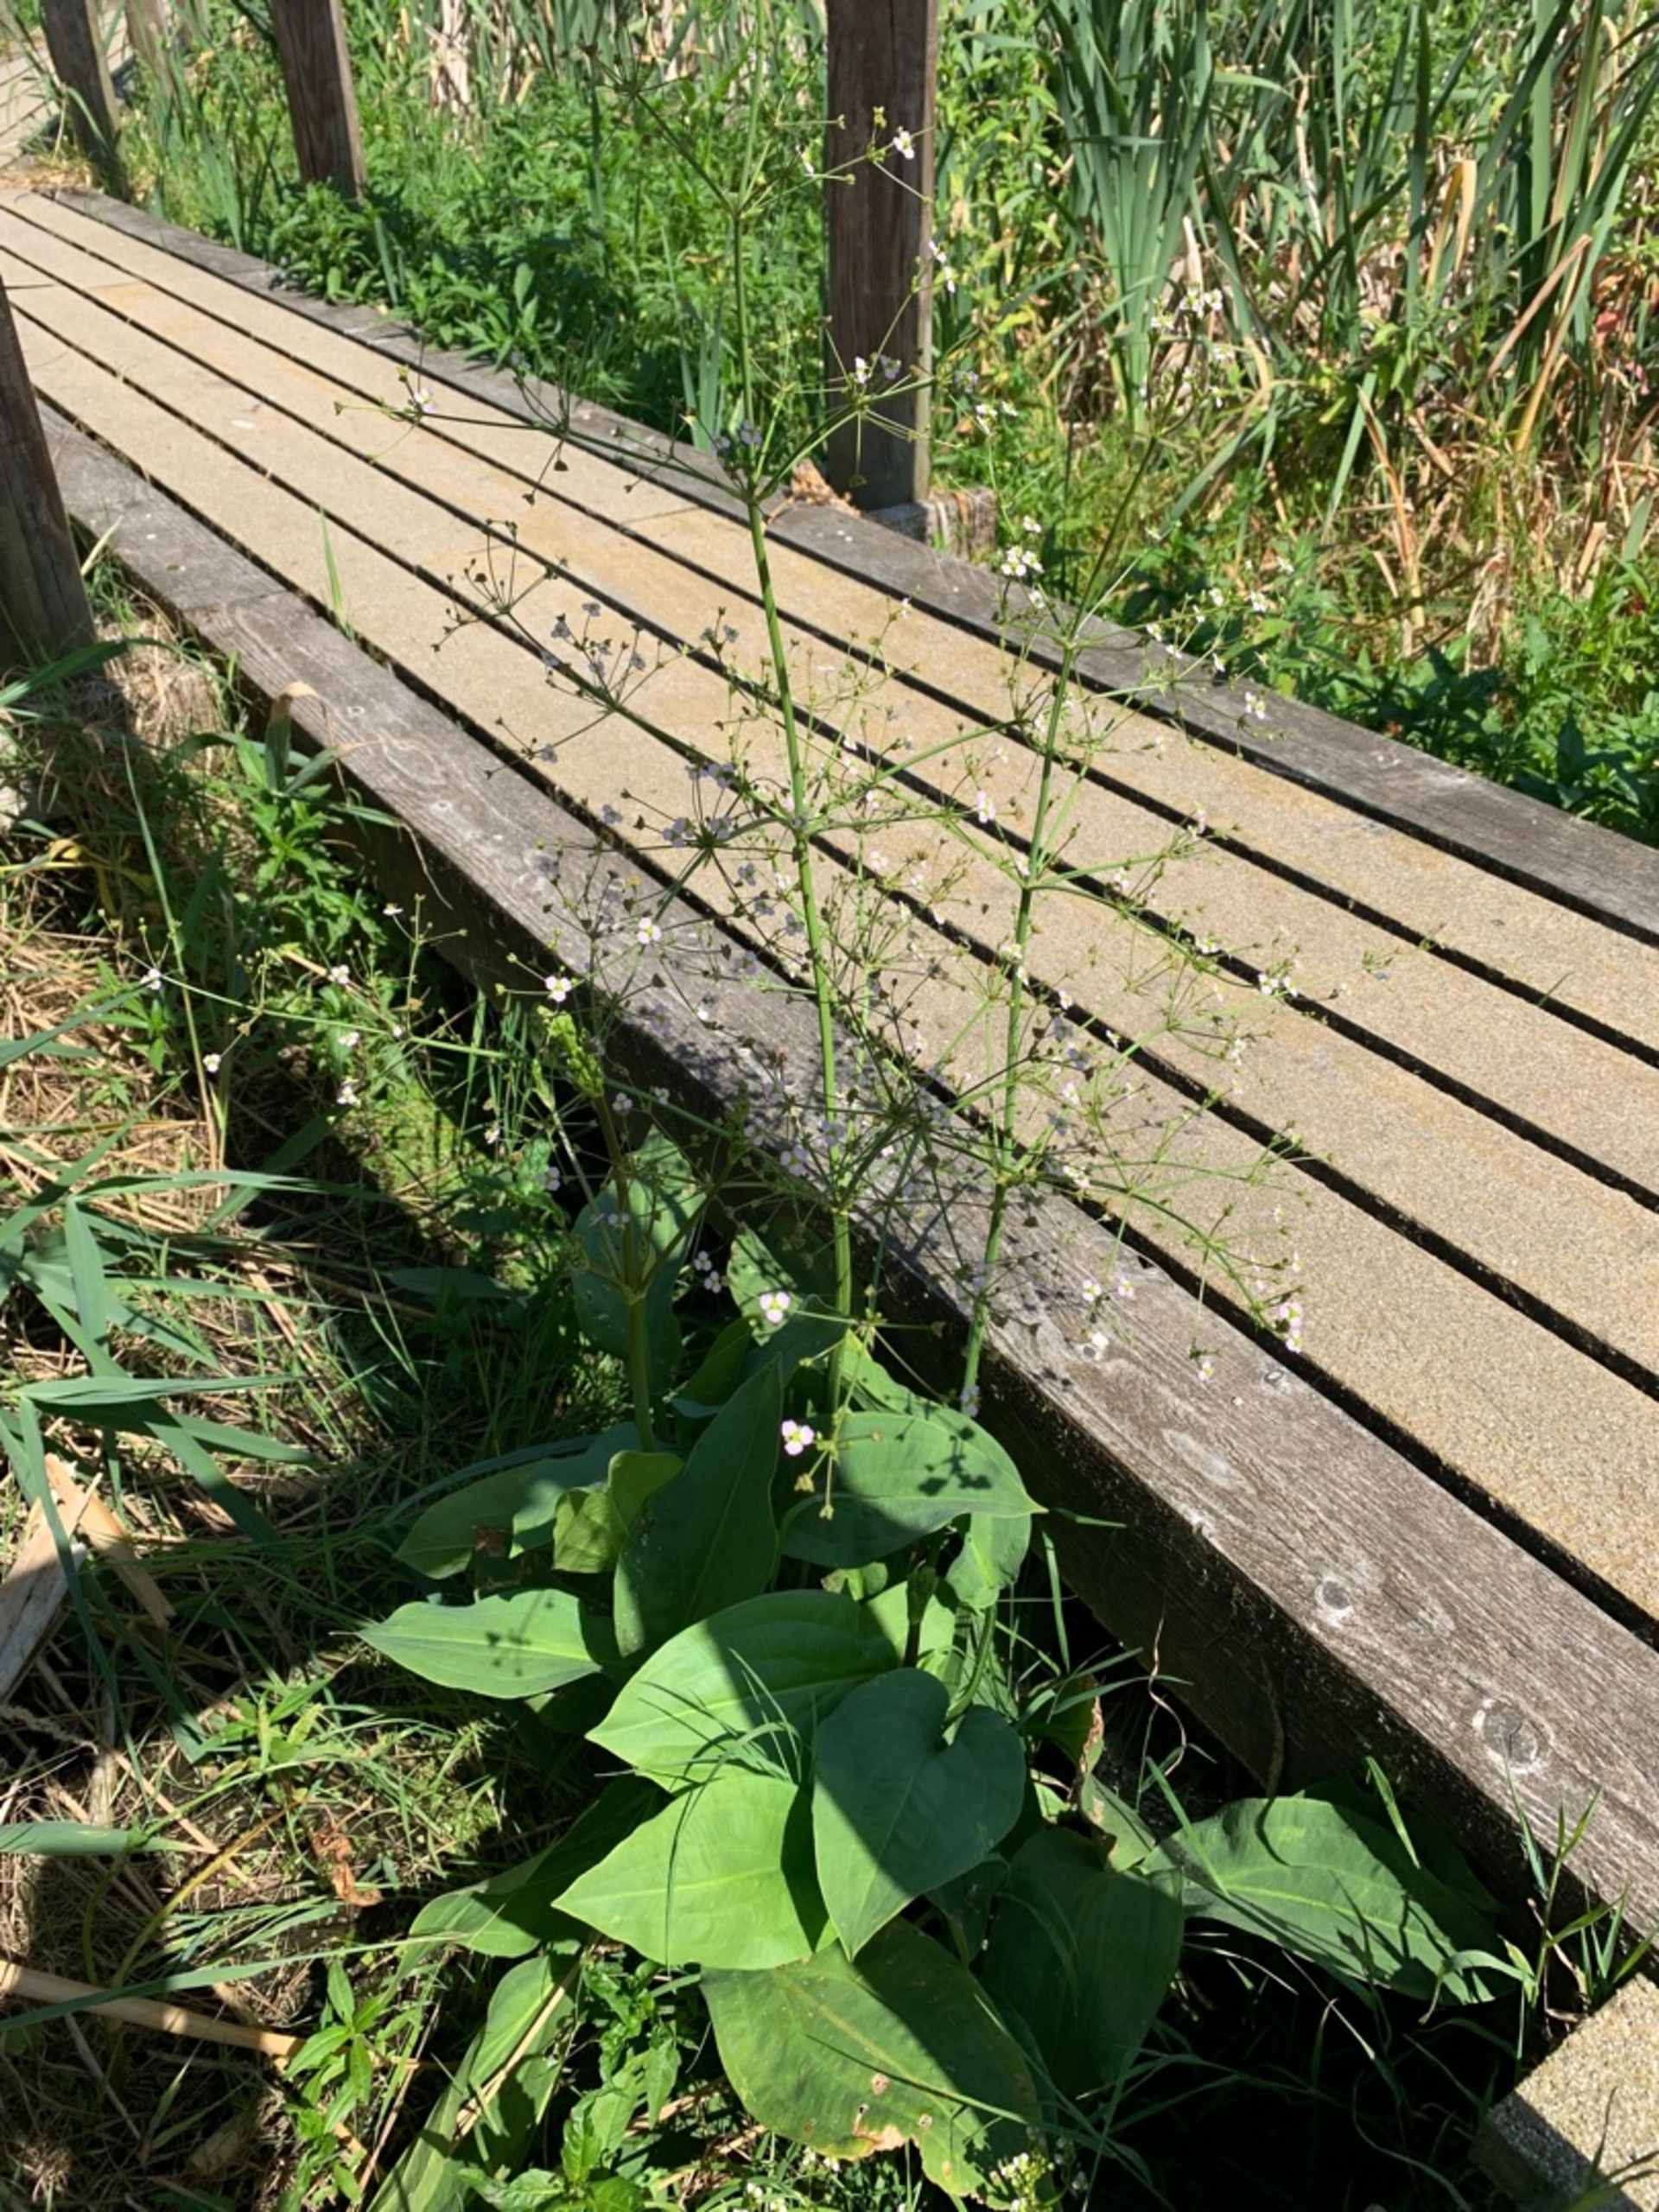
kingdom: Plantae
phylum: Tracheophyta
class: Liliopsida
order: Alismatales
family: Alismataceae
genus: Alisma
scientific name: Alisma plantago-aquatica
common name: Vejbred-skeblad
